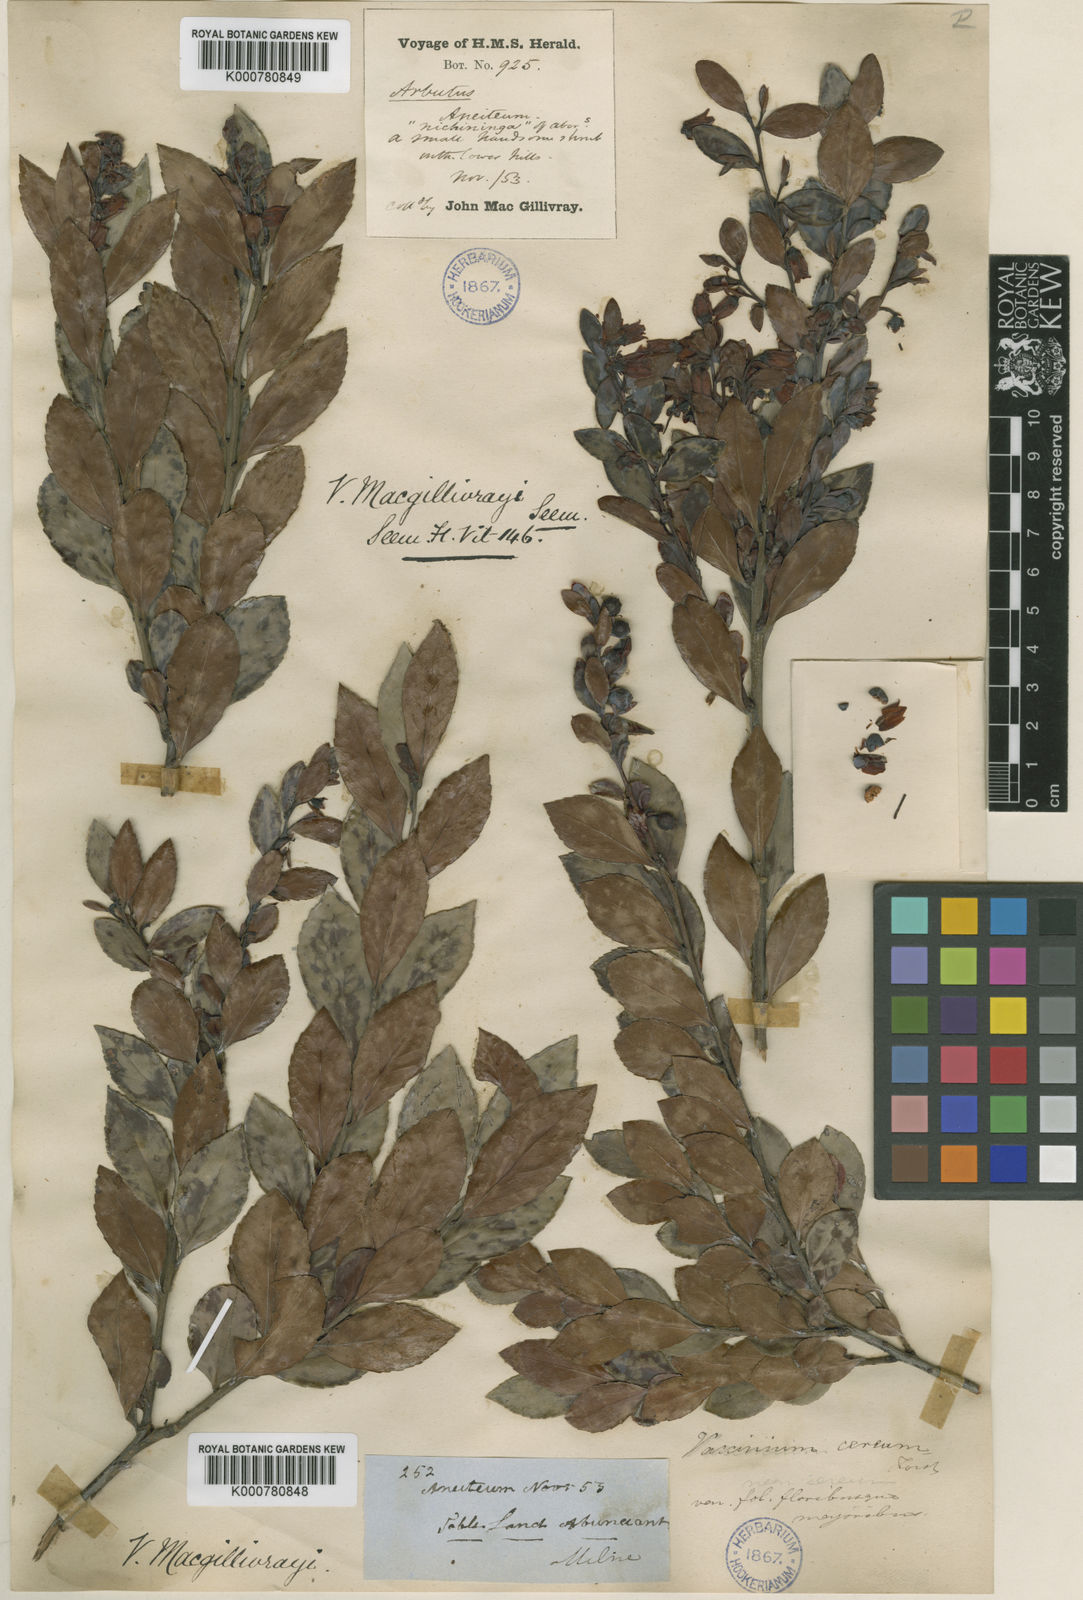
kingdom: Plantae
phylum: Tracheophyta
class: Magnoliopsida
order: Ericales
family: Ericaceae
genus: Vaccinium
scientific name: Vaccinium macgillivrayi
